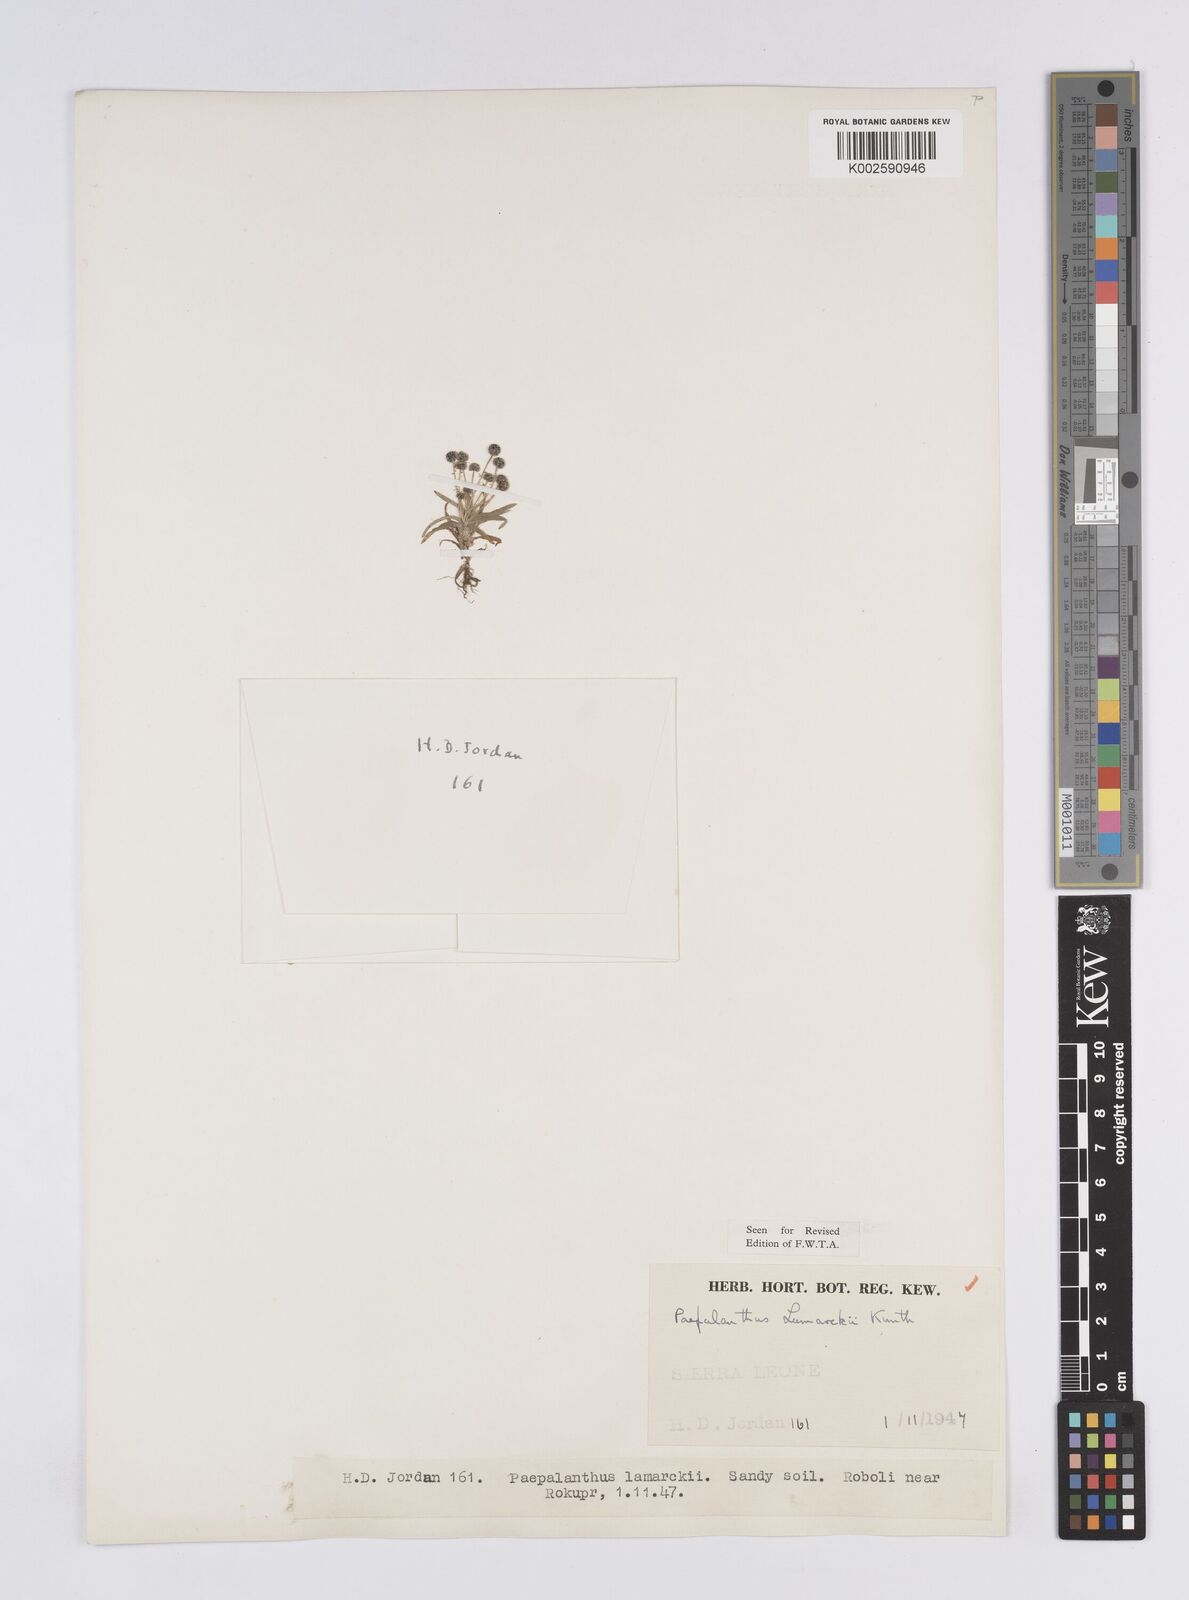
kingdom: Plantae
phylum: Tracheophyta
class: Liliopsida
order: Poales
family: Eriocaulaceae
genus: Paepalanthus
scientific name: Paepalanthus lamarckii
